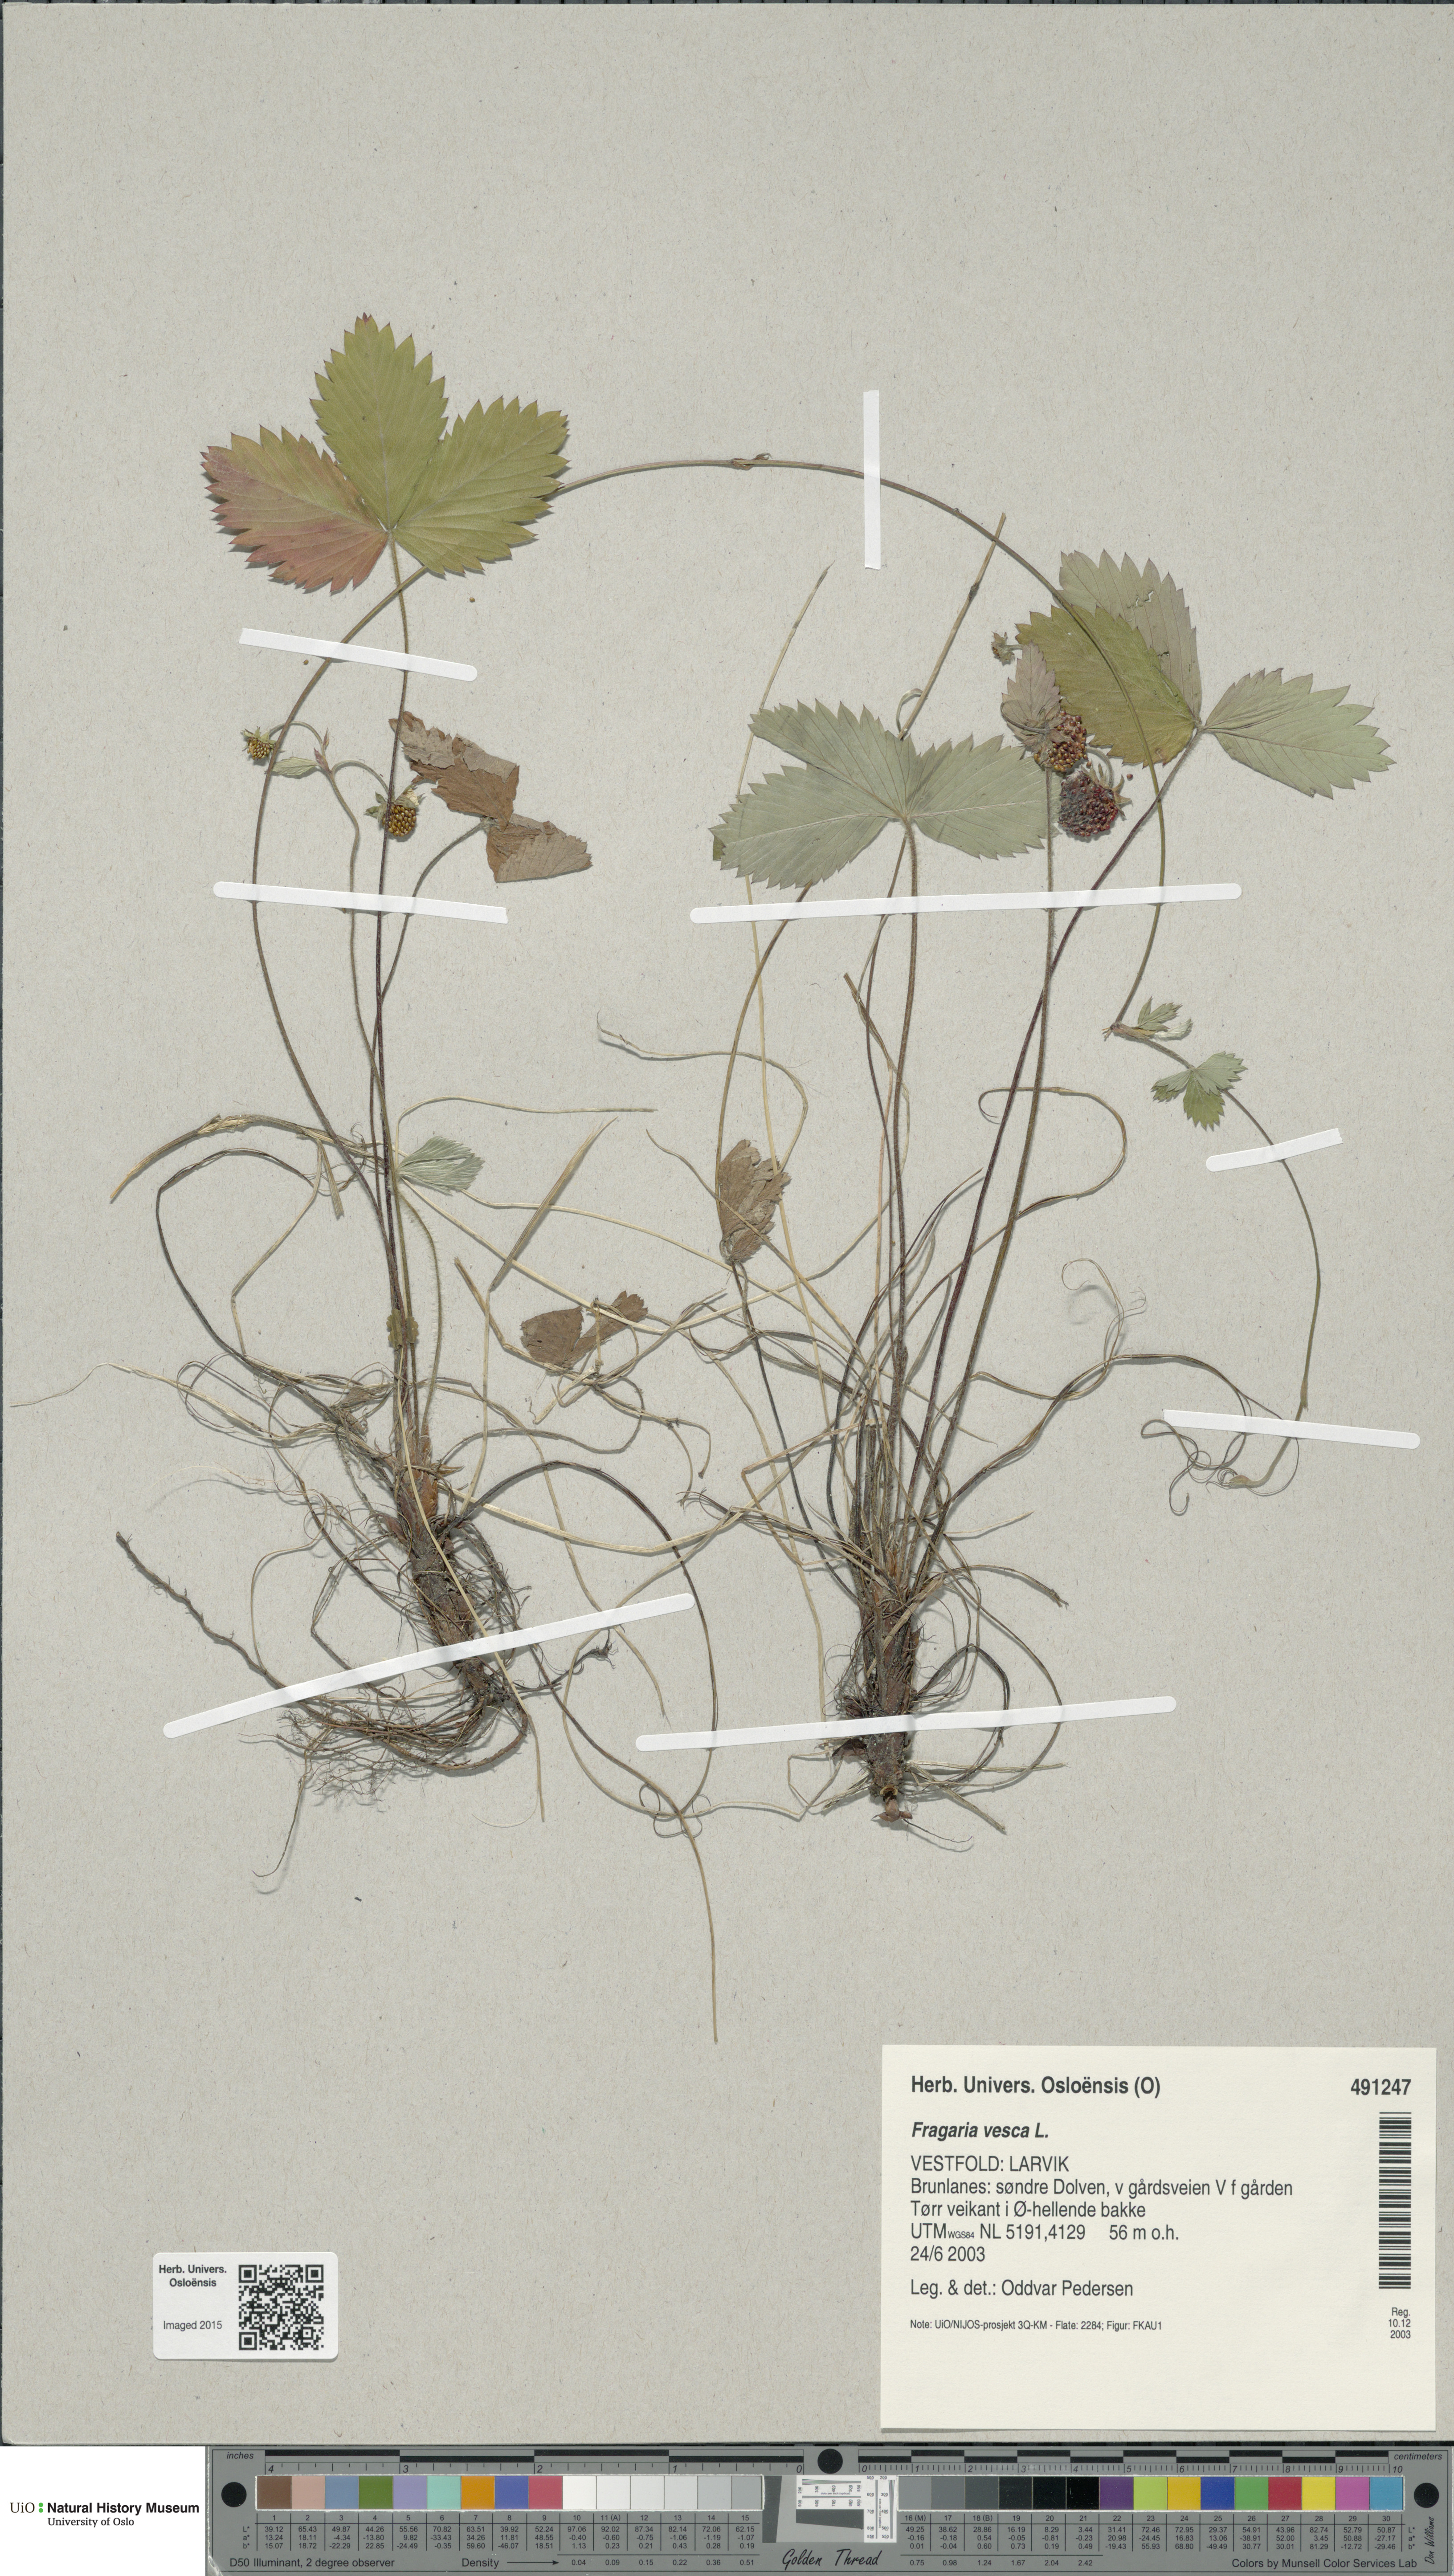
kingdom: Plantae
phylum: Tracheophyta
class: Magnoliopsida
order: Rosales
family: Rosaceae
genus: Fragaria
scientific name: Fragaria vesca
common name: Wild strawberry
